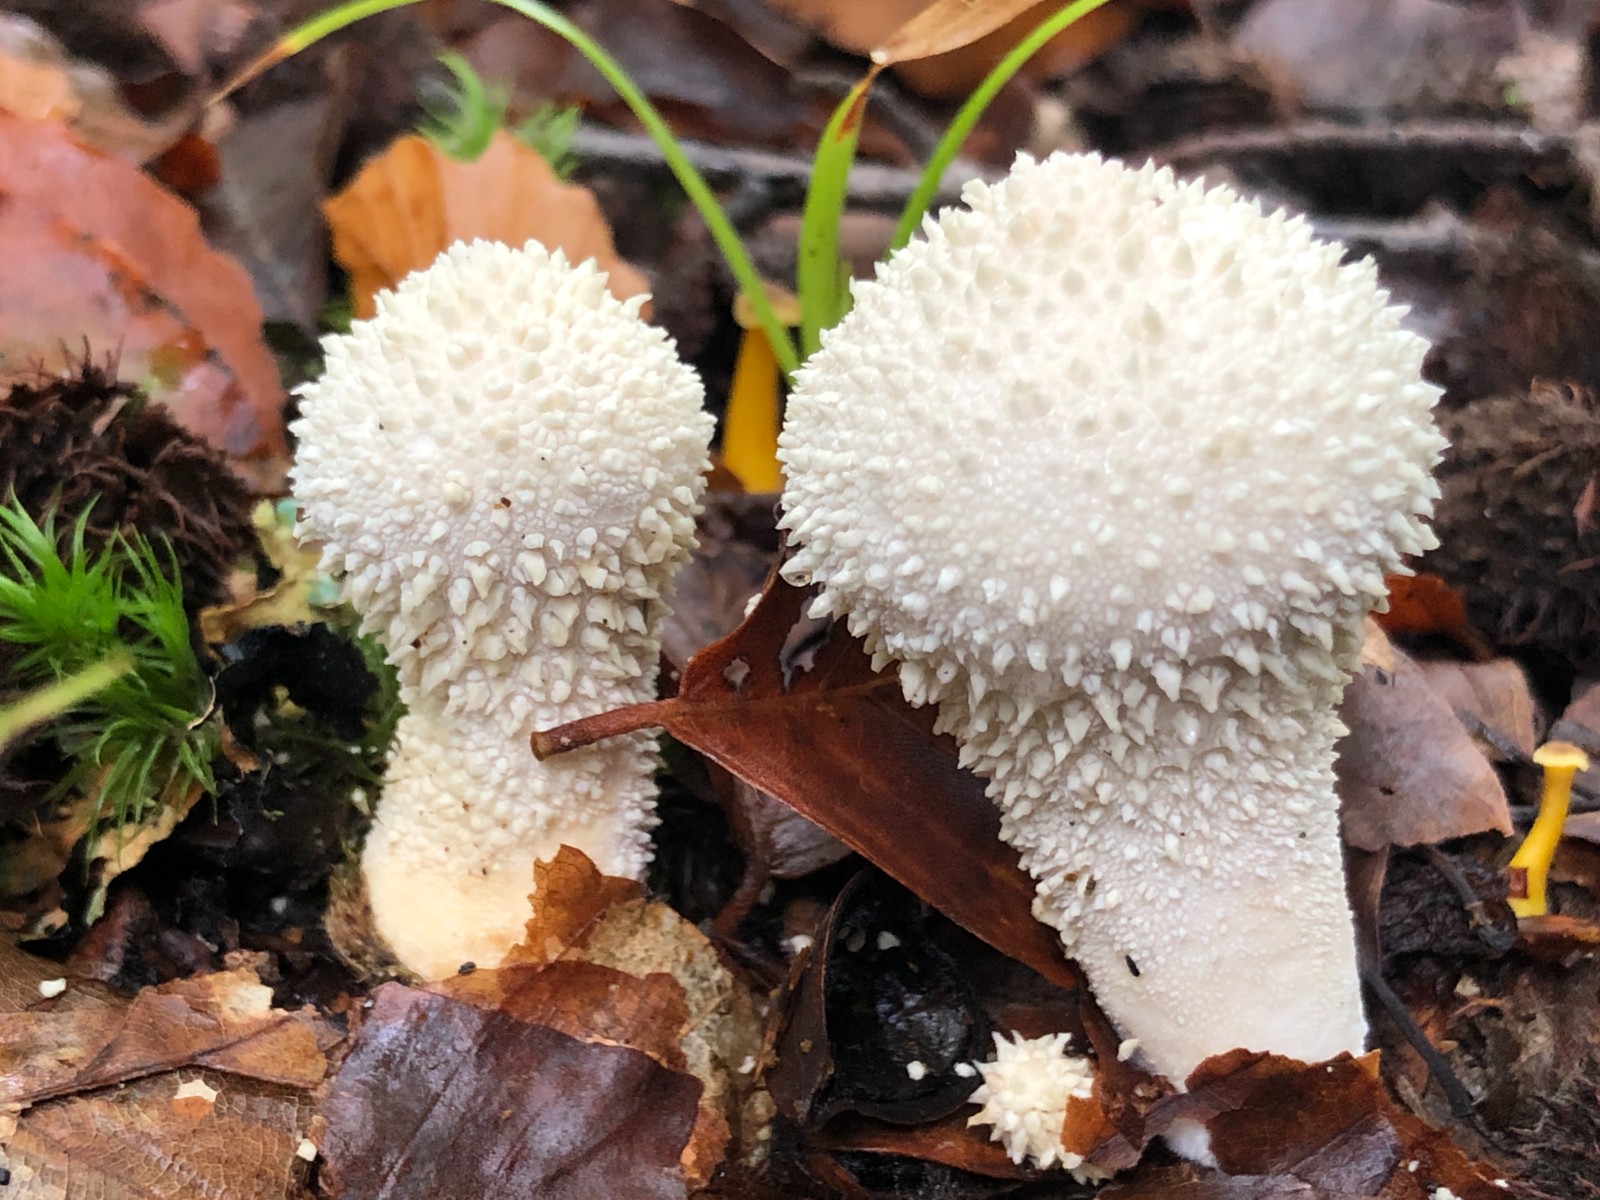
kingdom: Fungi
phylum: Basidiomycota
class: Agaricomycetes
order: Agaricales
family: Lycoperdaceae
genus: Lycoperdon
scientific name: Lycoperdon perlatum
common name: krystal-støvbold
